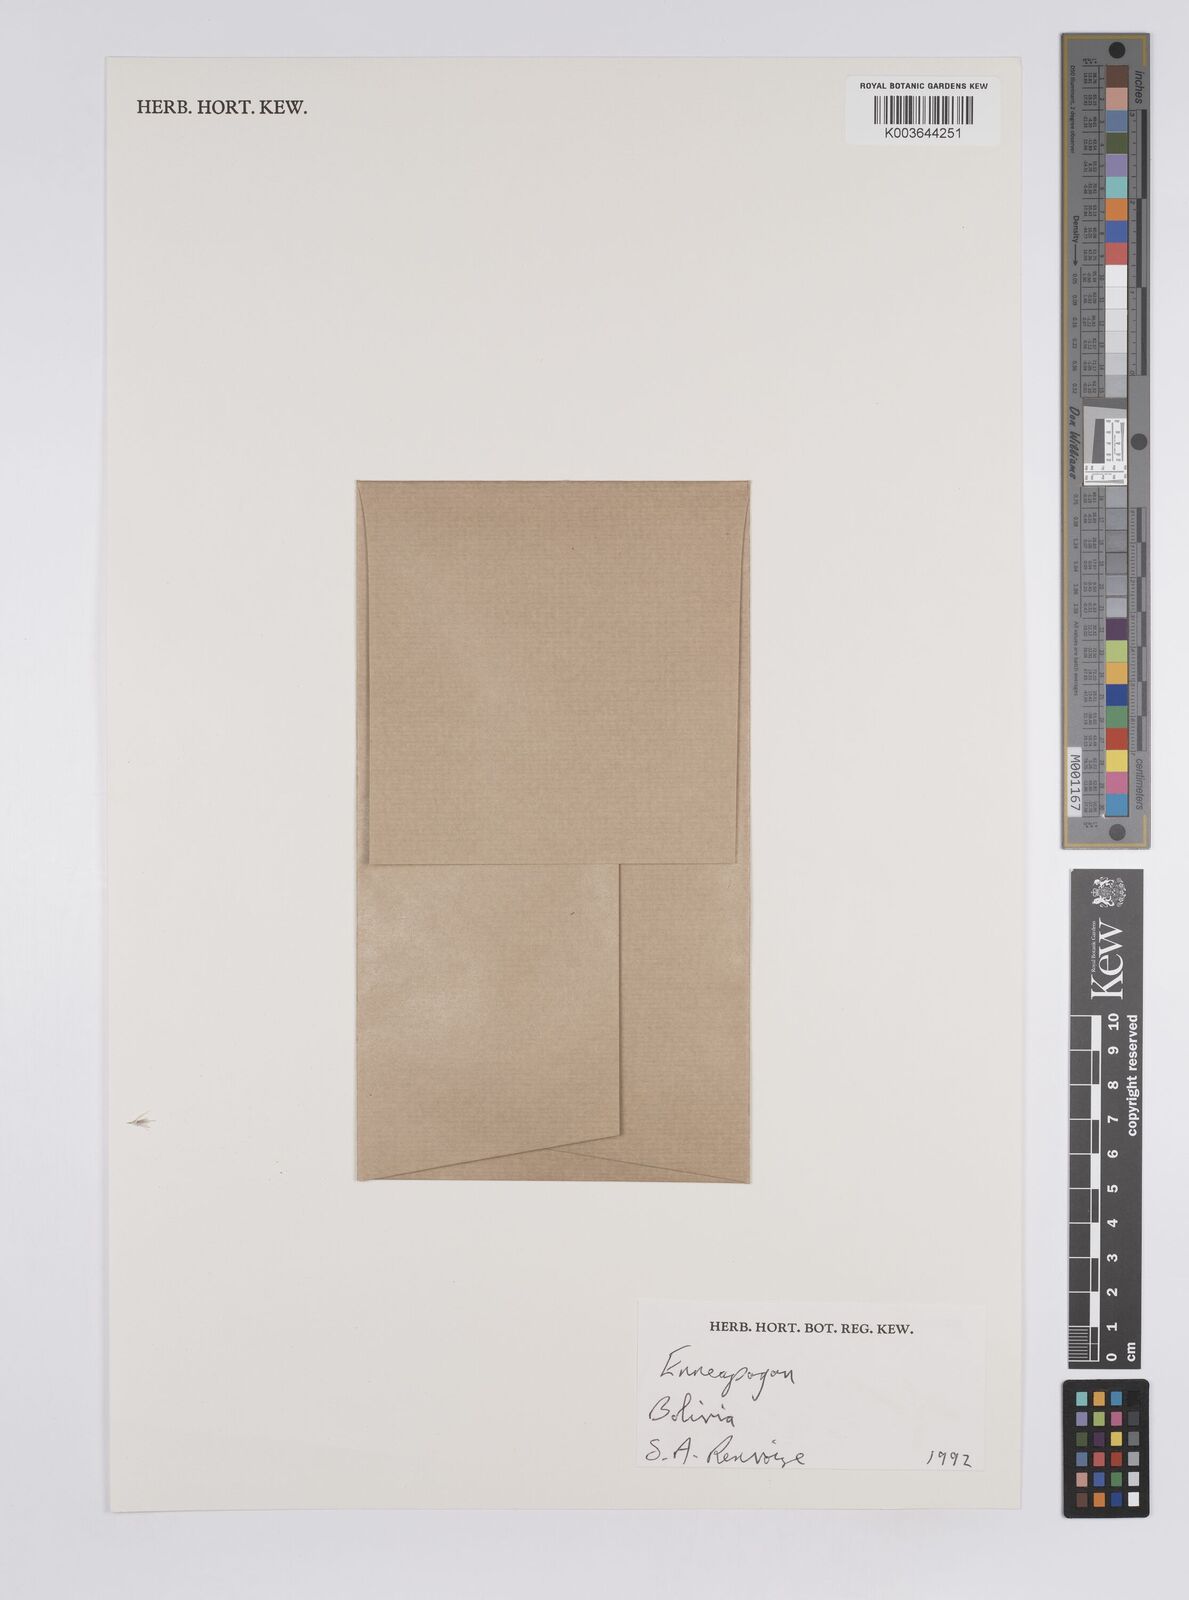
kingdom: Plantae
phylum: Tracheophyta
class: Liliopsida
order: Poales
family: Poaceae
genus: Enneapogon
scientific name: Enneapogon desvauxii
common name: Feather pappus grass
